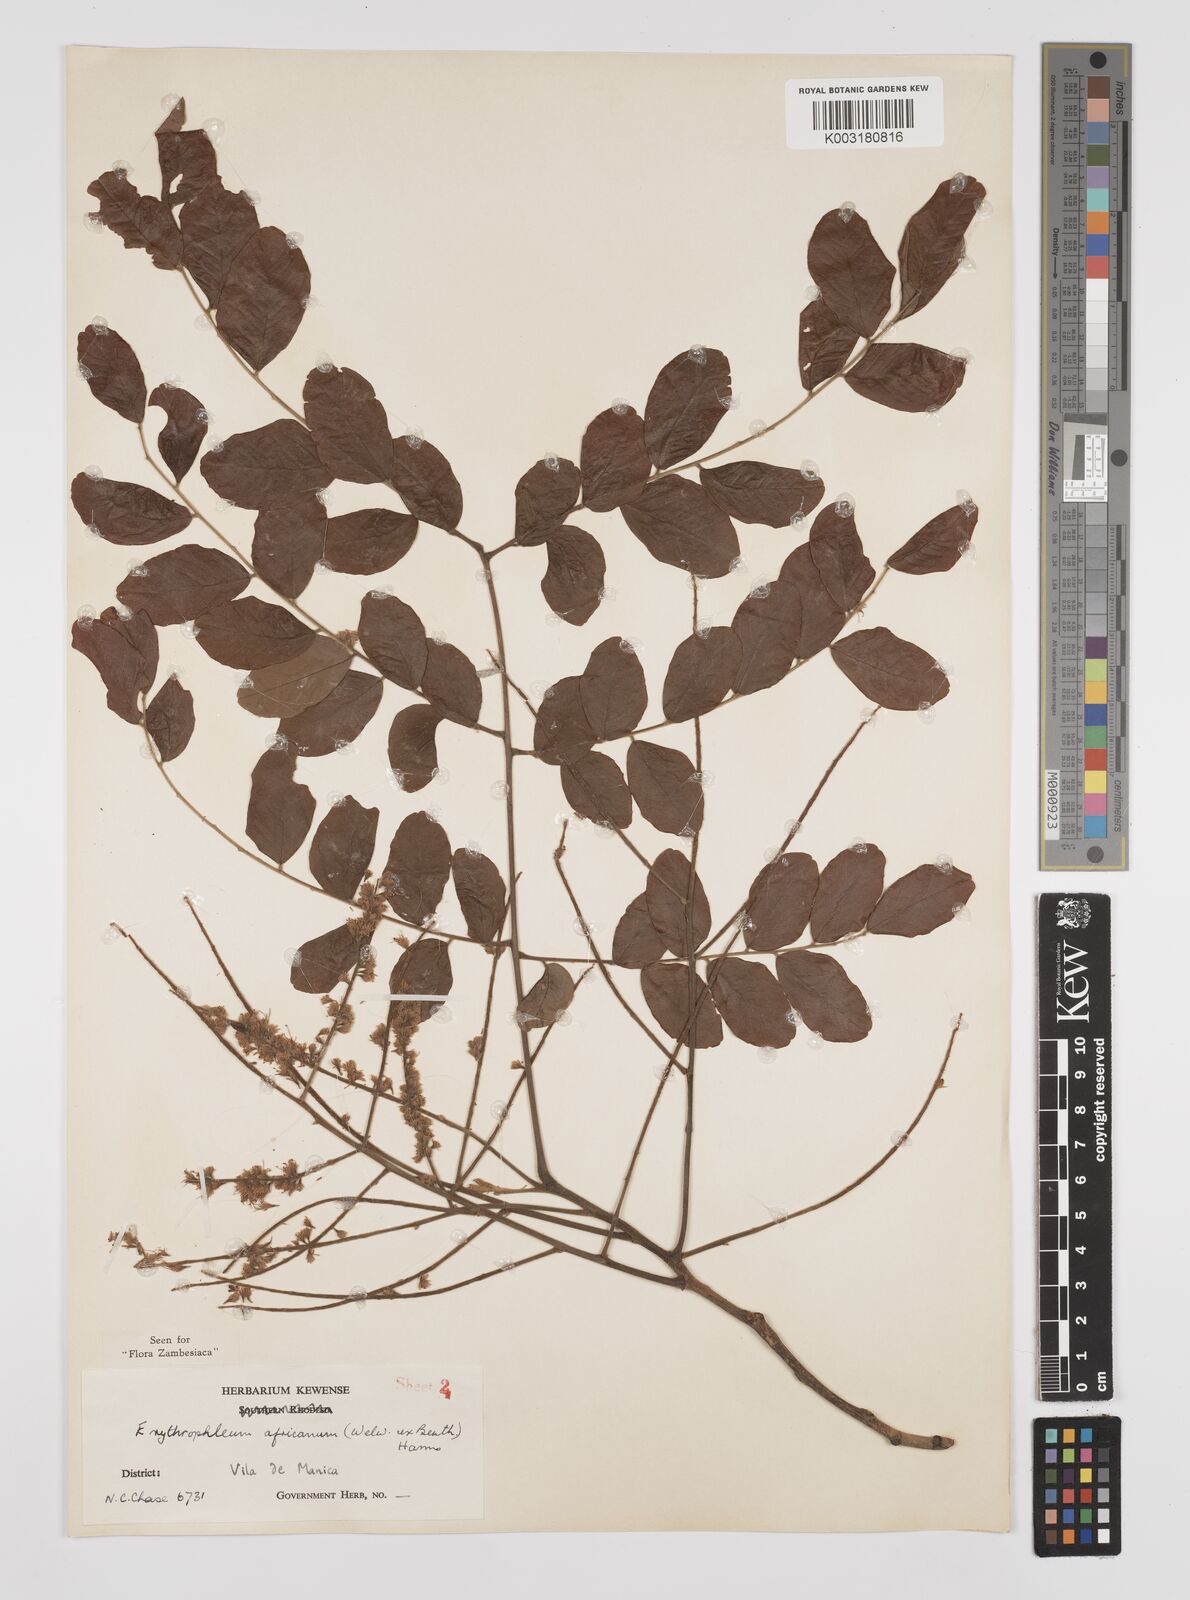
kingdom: Plantae
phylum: Tracheophyta
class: Magnoliopsida
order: Fabales
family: Fabaceae
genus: Peltophorum
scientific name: Peltophorum africanum
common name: African black wattle
